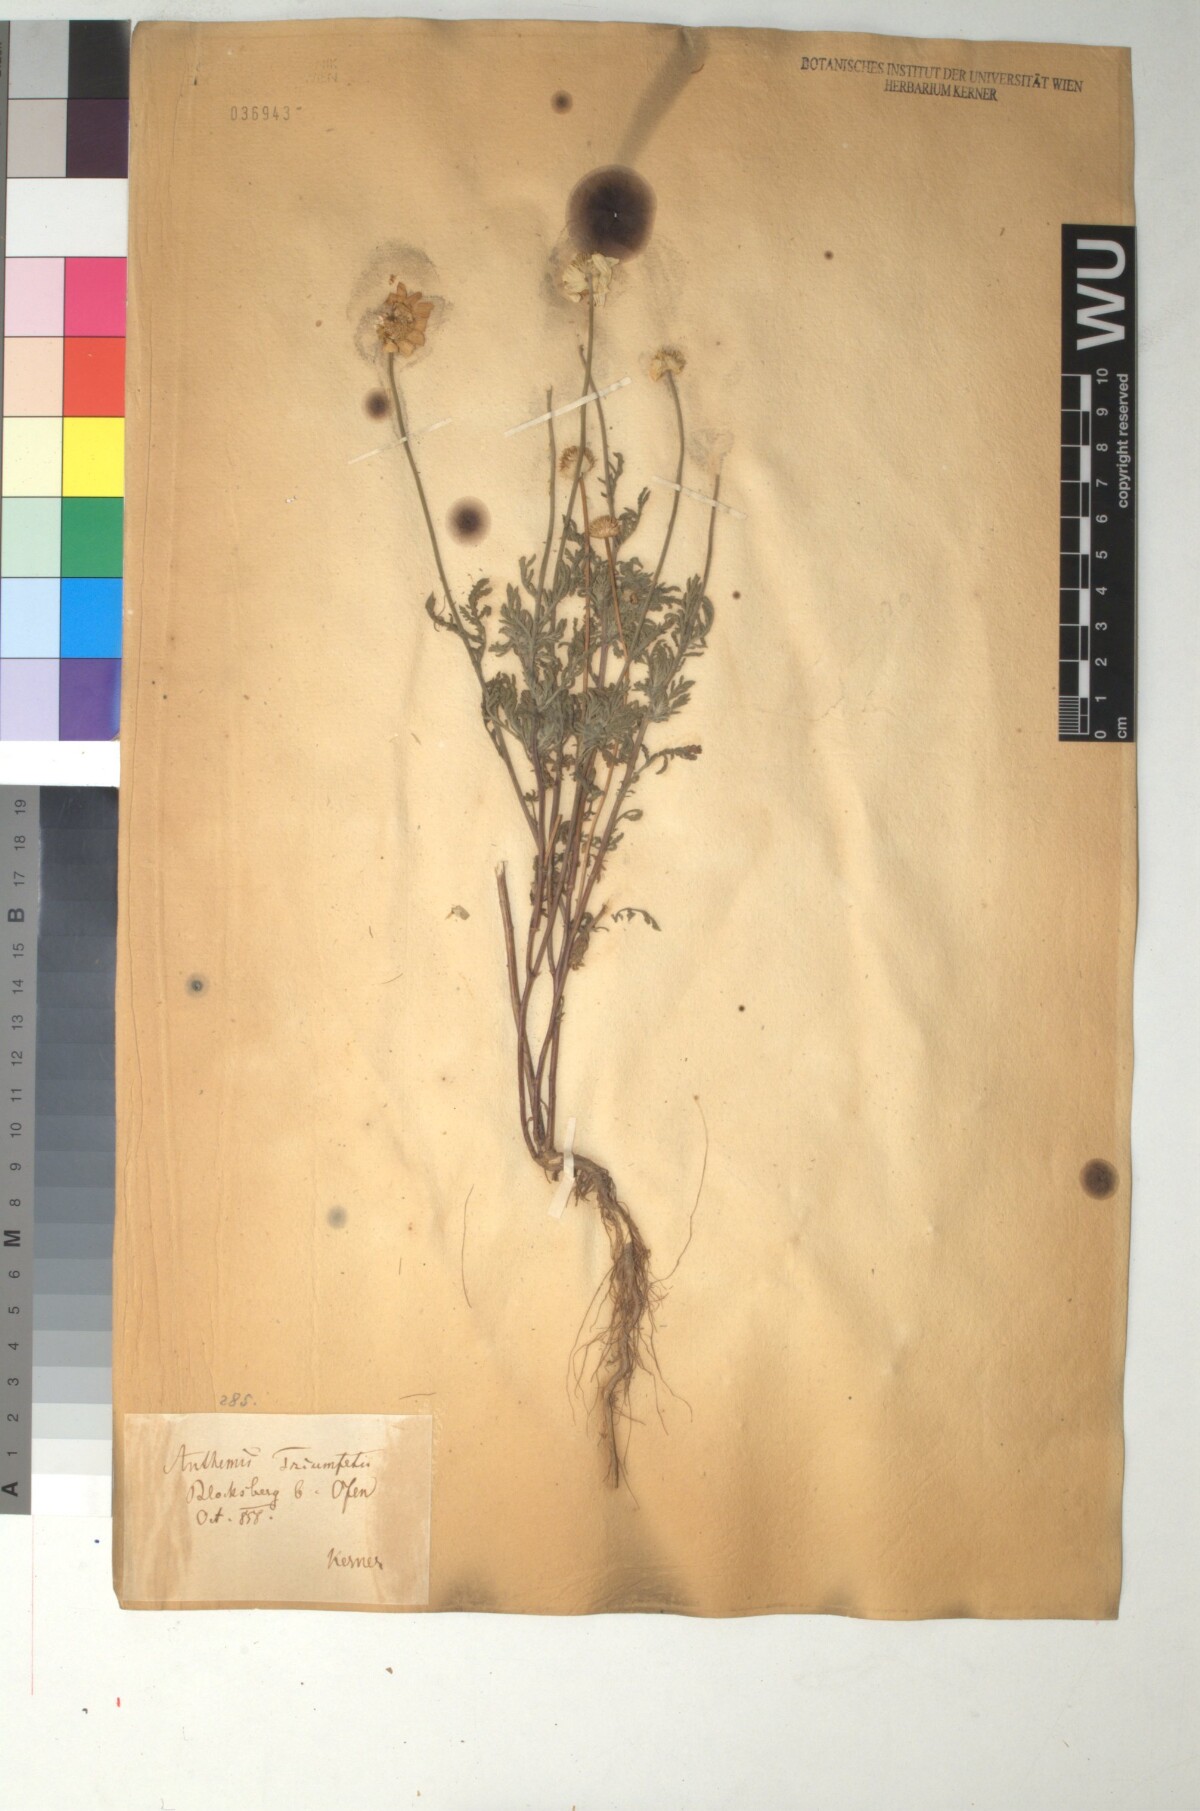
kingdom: Plantae
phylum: Tracheophyta
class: Magnoliopsida
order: Asterales
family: Asteraceae
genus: Cota
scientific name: Cota triumfetti
